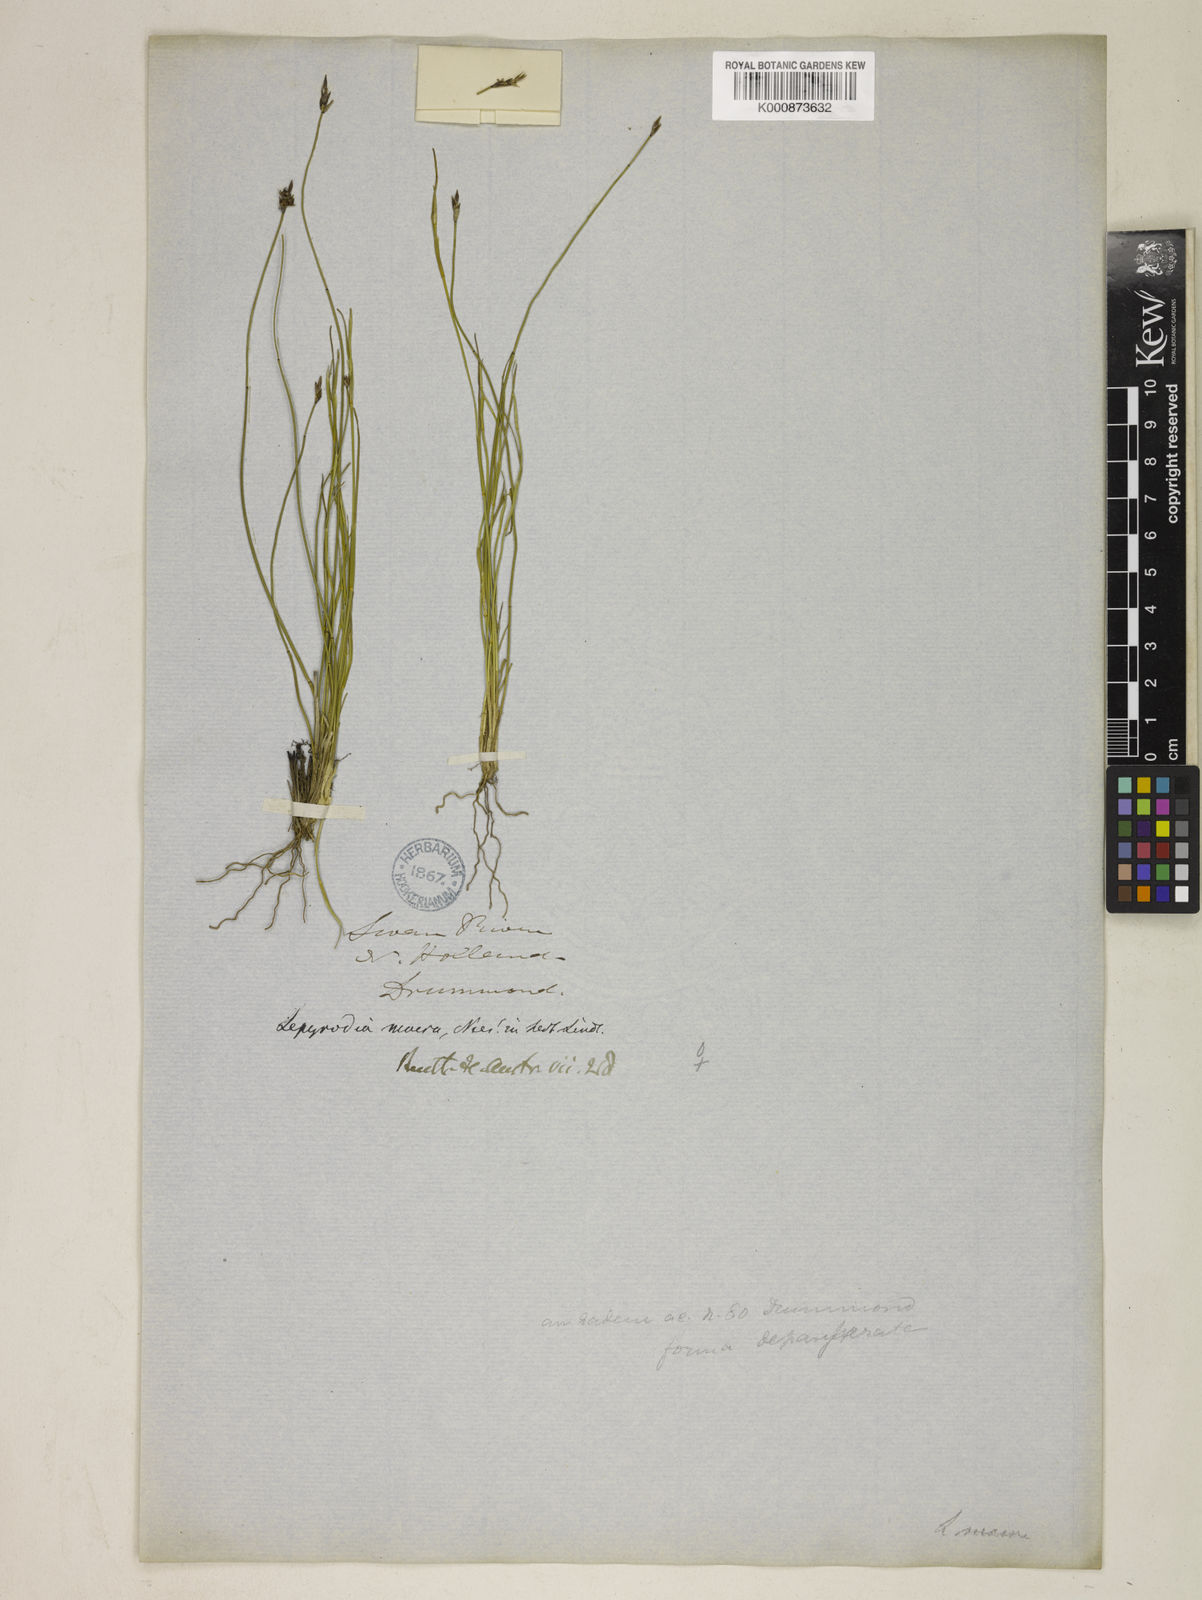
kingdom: Plantae
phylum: Tracheophyta
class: Liliopsida
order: Poales
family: Restionaceae
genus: Lepyrodia
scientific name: Lepyrodia macra
